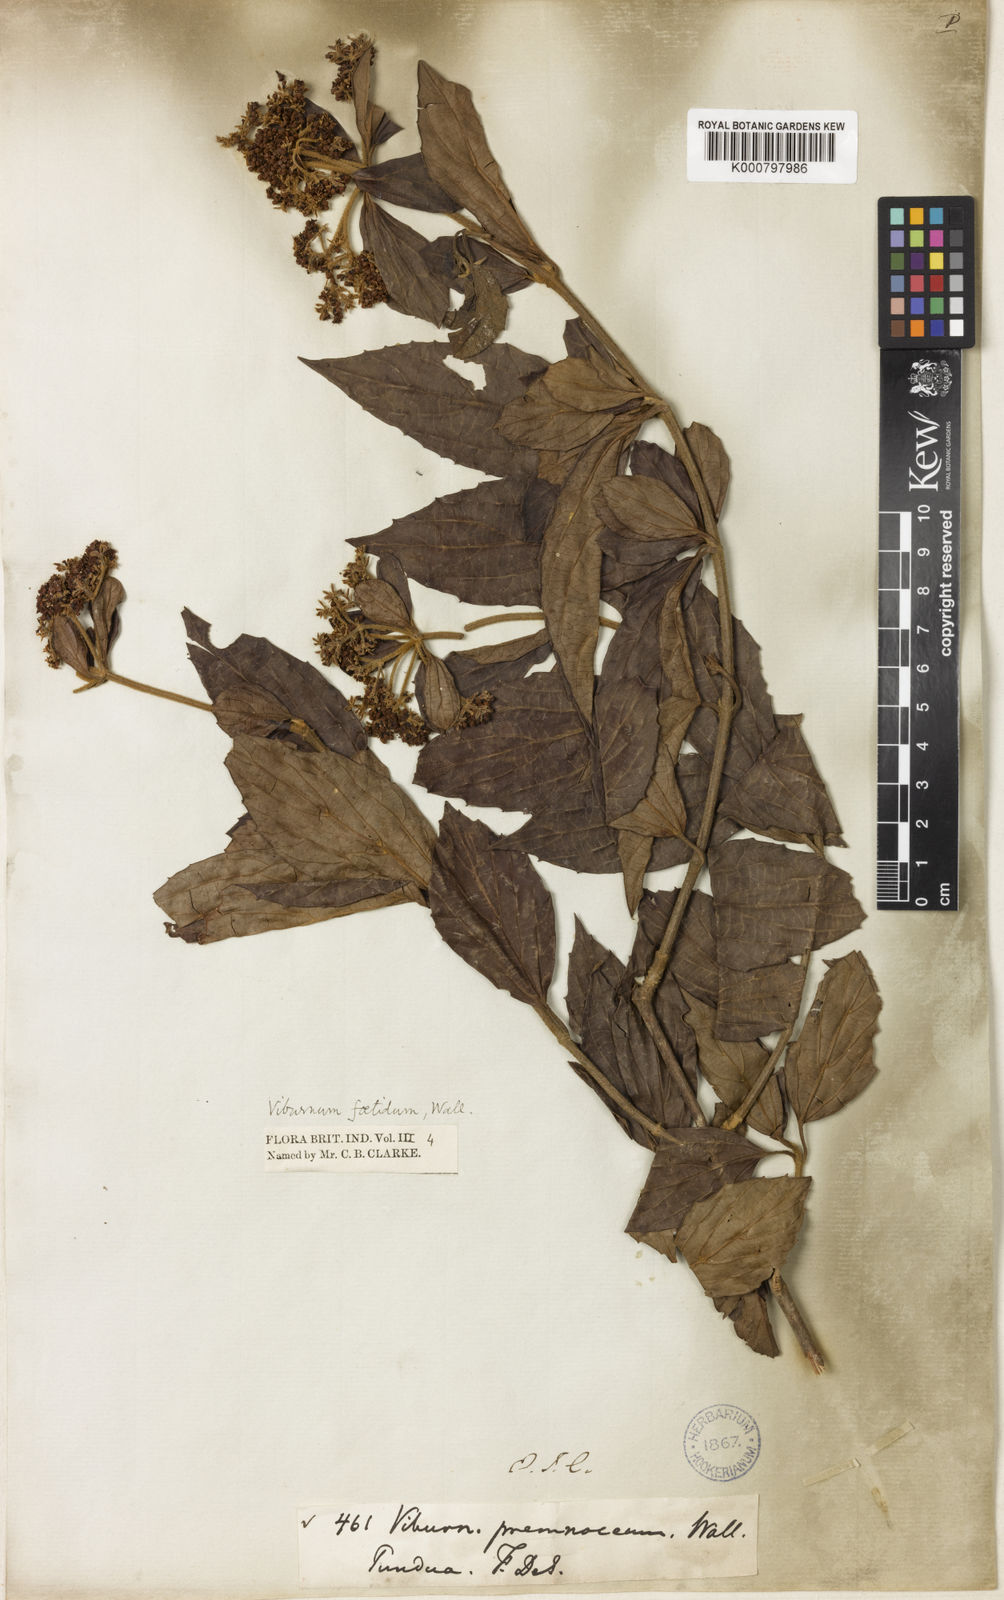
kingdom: Plantae
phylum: Tracheophyta
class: Magnoliopsida
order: Dipsacales
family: Viburnaceae
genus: Viburnum
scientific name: Viburnum foetidum
